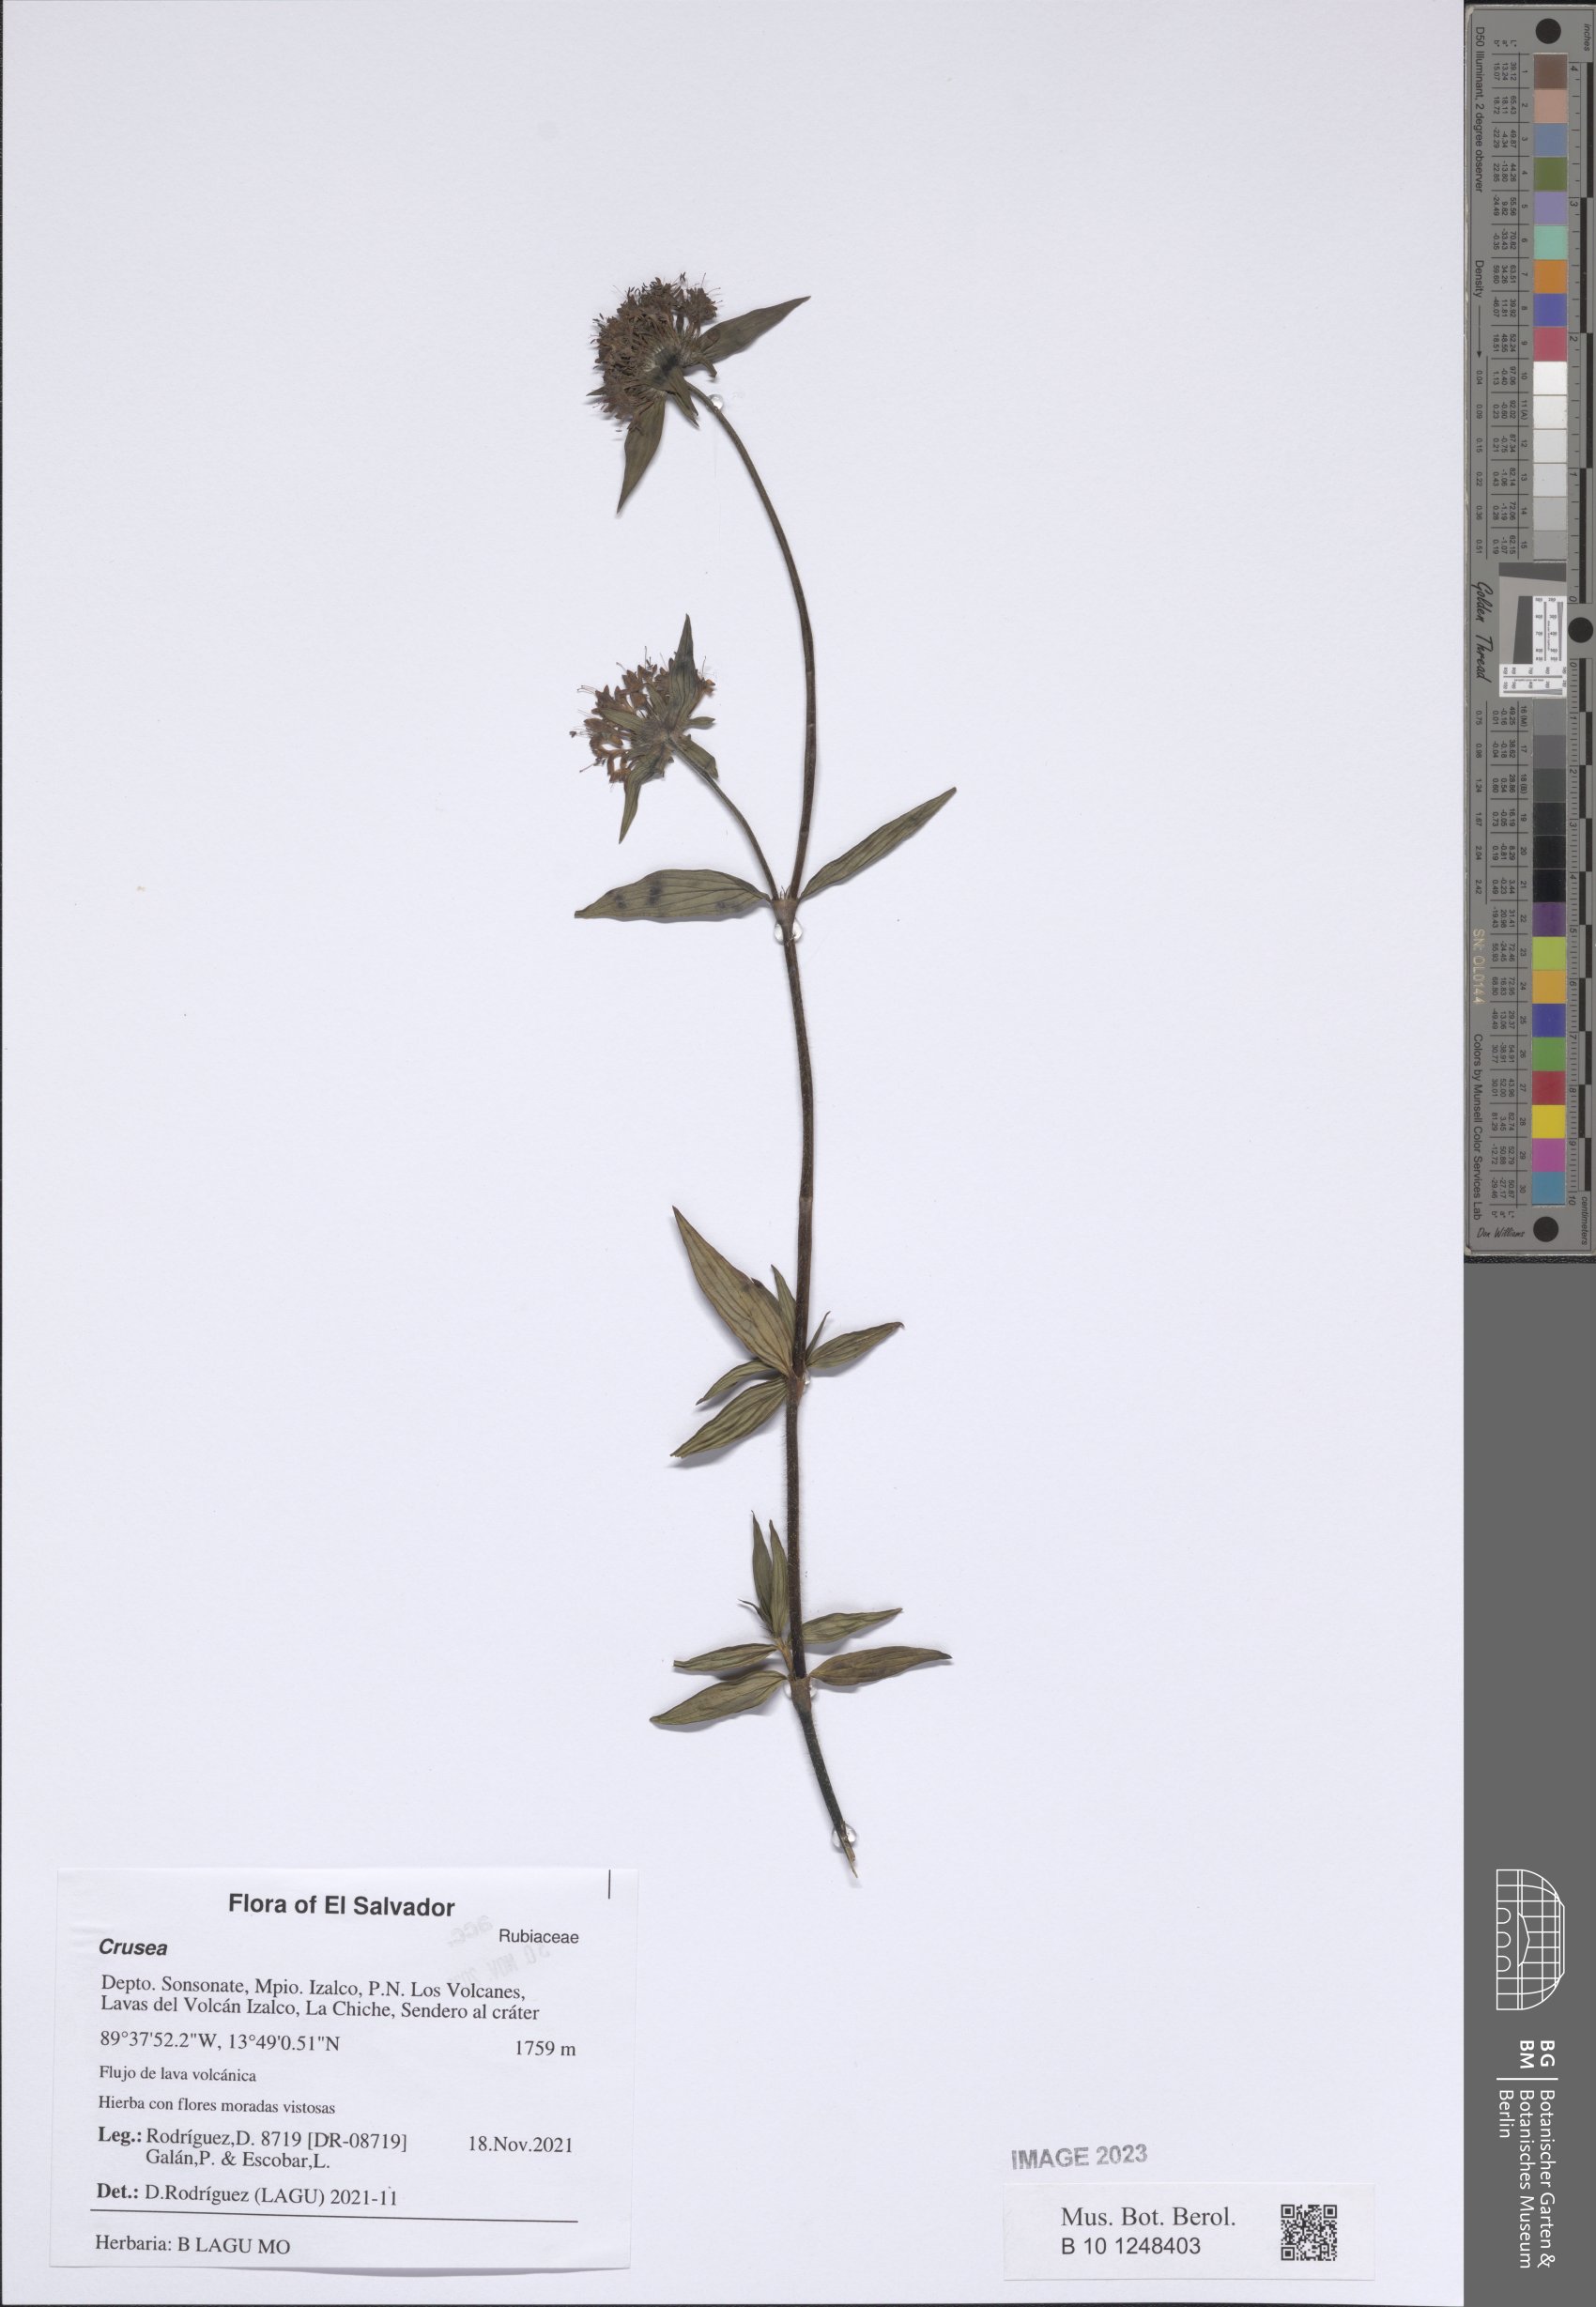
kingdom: Plantae
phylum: Tracheophyta
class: Magnoliopsida
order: Gentianales
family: Rubiaceae
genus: Crusea
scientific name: Crusea calocephala
